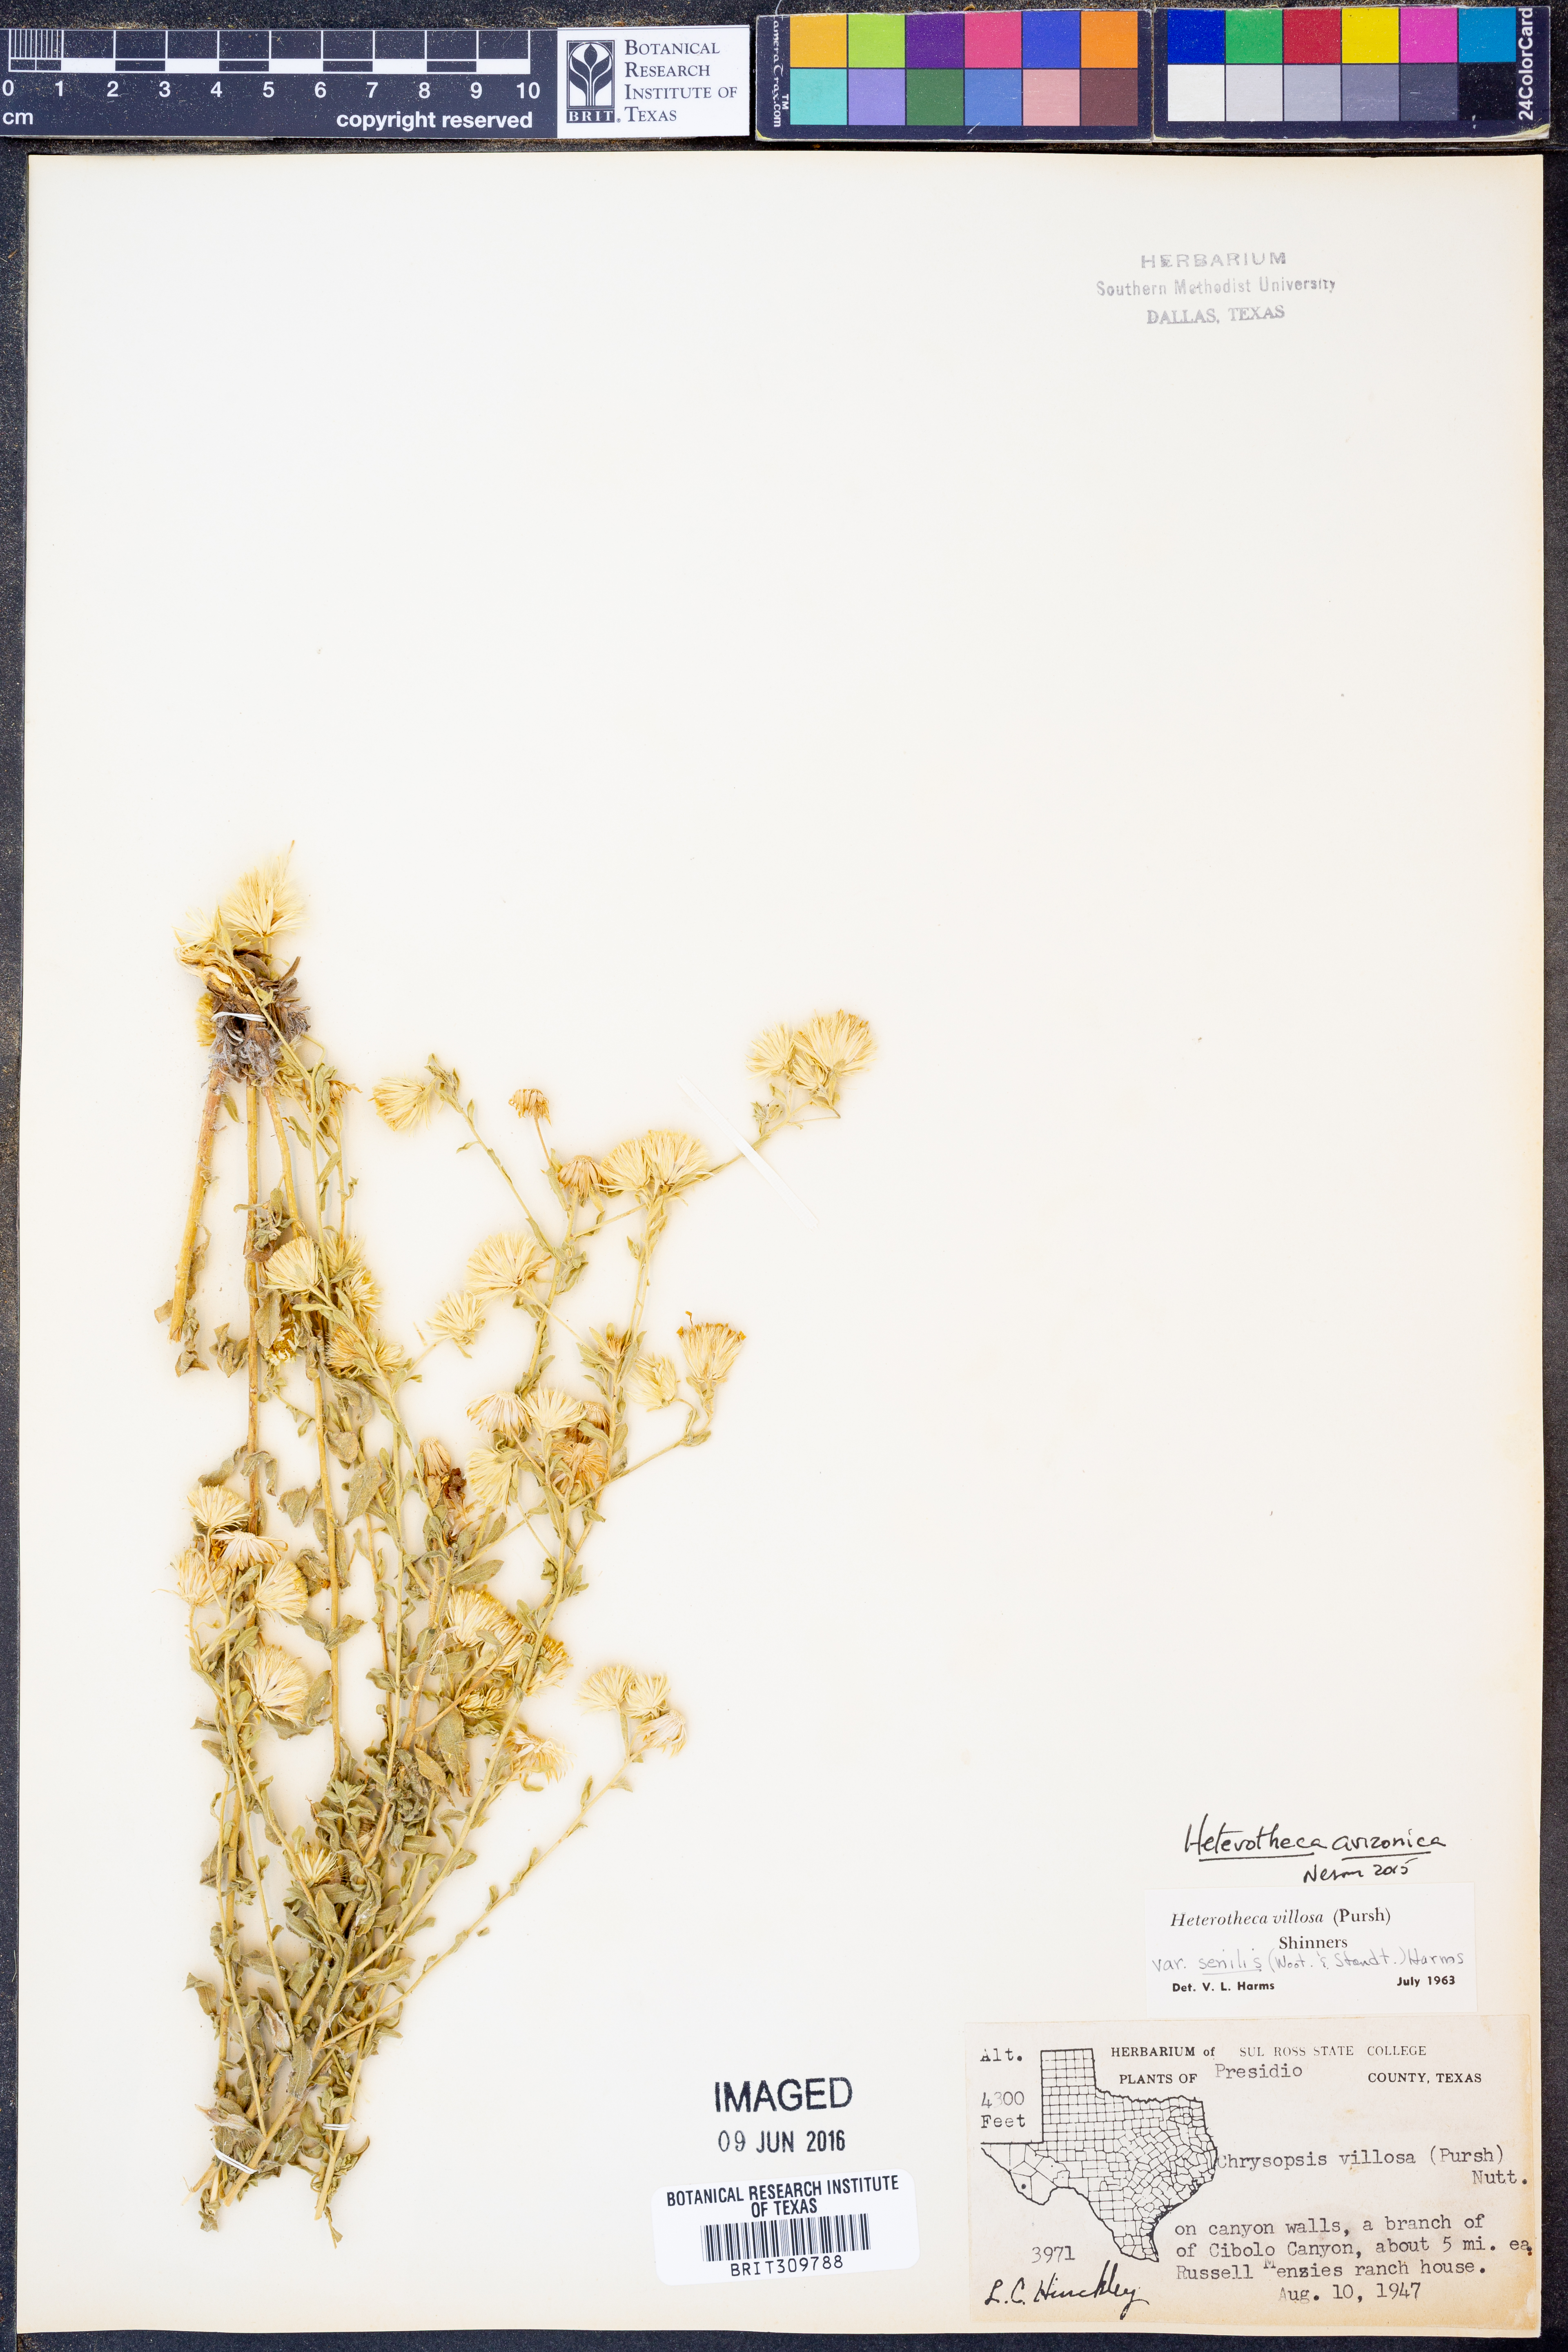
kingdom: Plantae
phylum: Tracheophyta
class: Magnoliopsida
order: Asterales
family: Asteraceae
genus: Heterotheca
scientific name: Heterotheca arizonica
